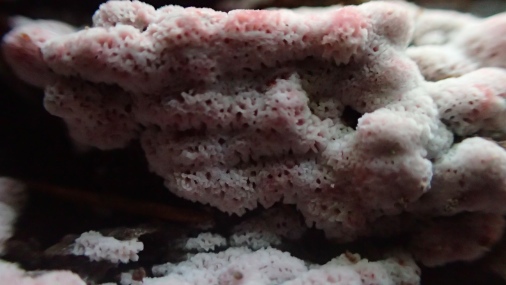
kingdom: Fungi
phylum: Basidiomycota
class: Agaricomycetes
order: Polyporales
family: Irpicaceae
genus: Ceriporia
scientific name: Ceriporia excelsa
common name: lilla voksporesvamp
